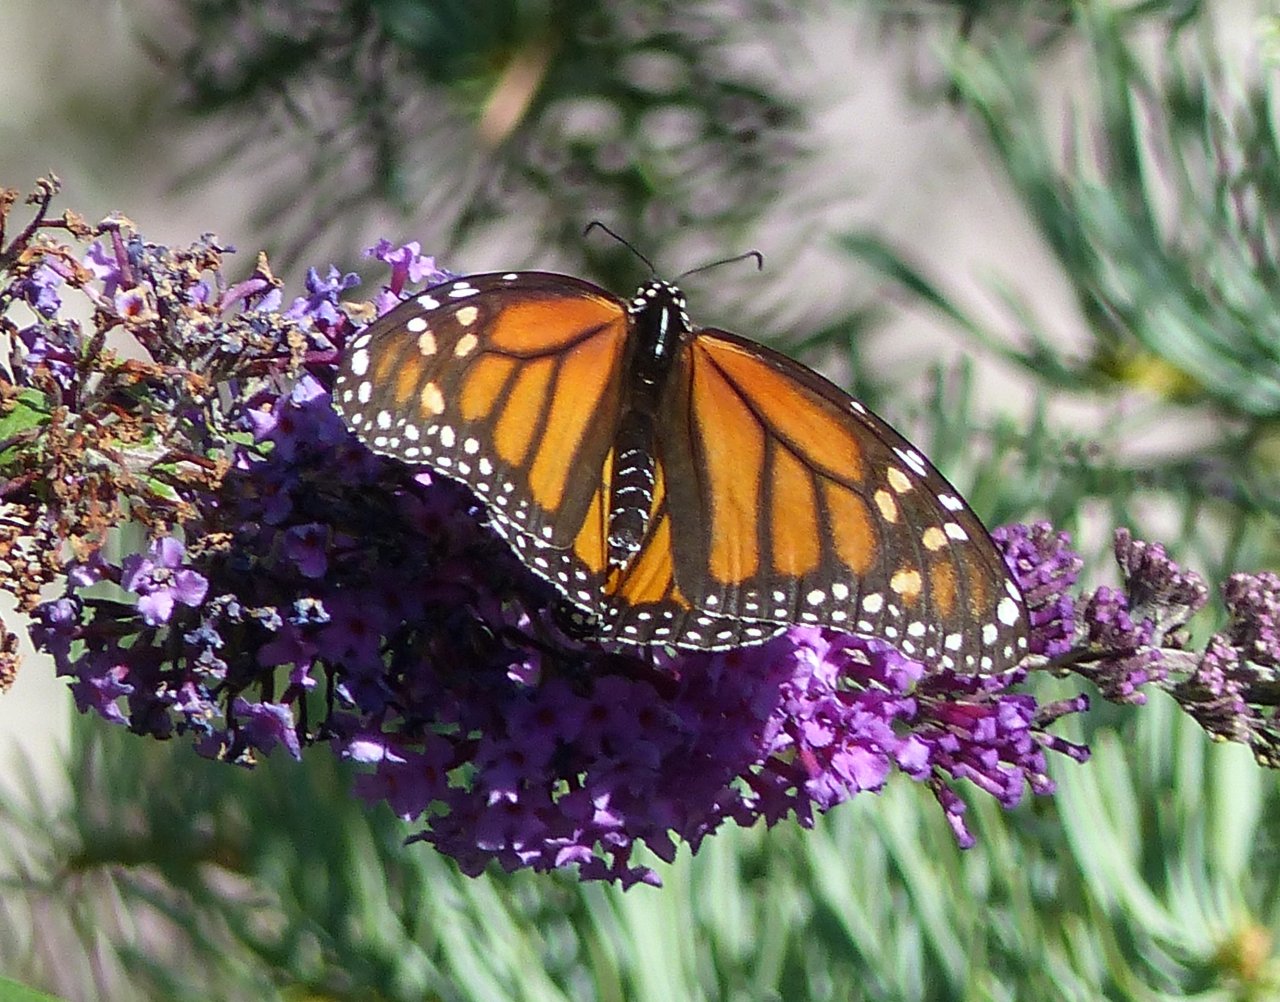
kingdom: Animalia
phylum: Arthropoda
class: Insecta
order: Lepidoptera
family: Nymphalidae
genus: Danaus
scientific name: Danaus plexippus
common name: Monarch
